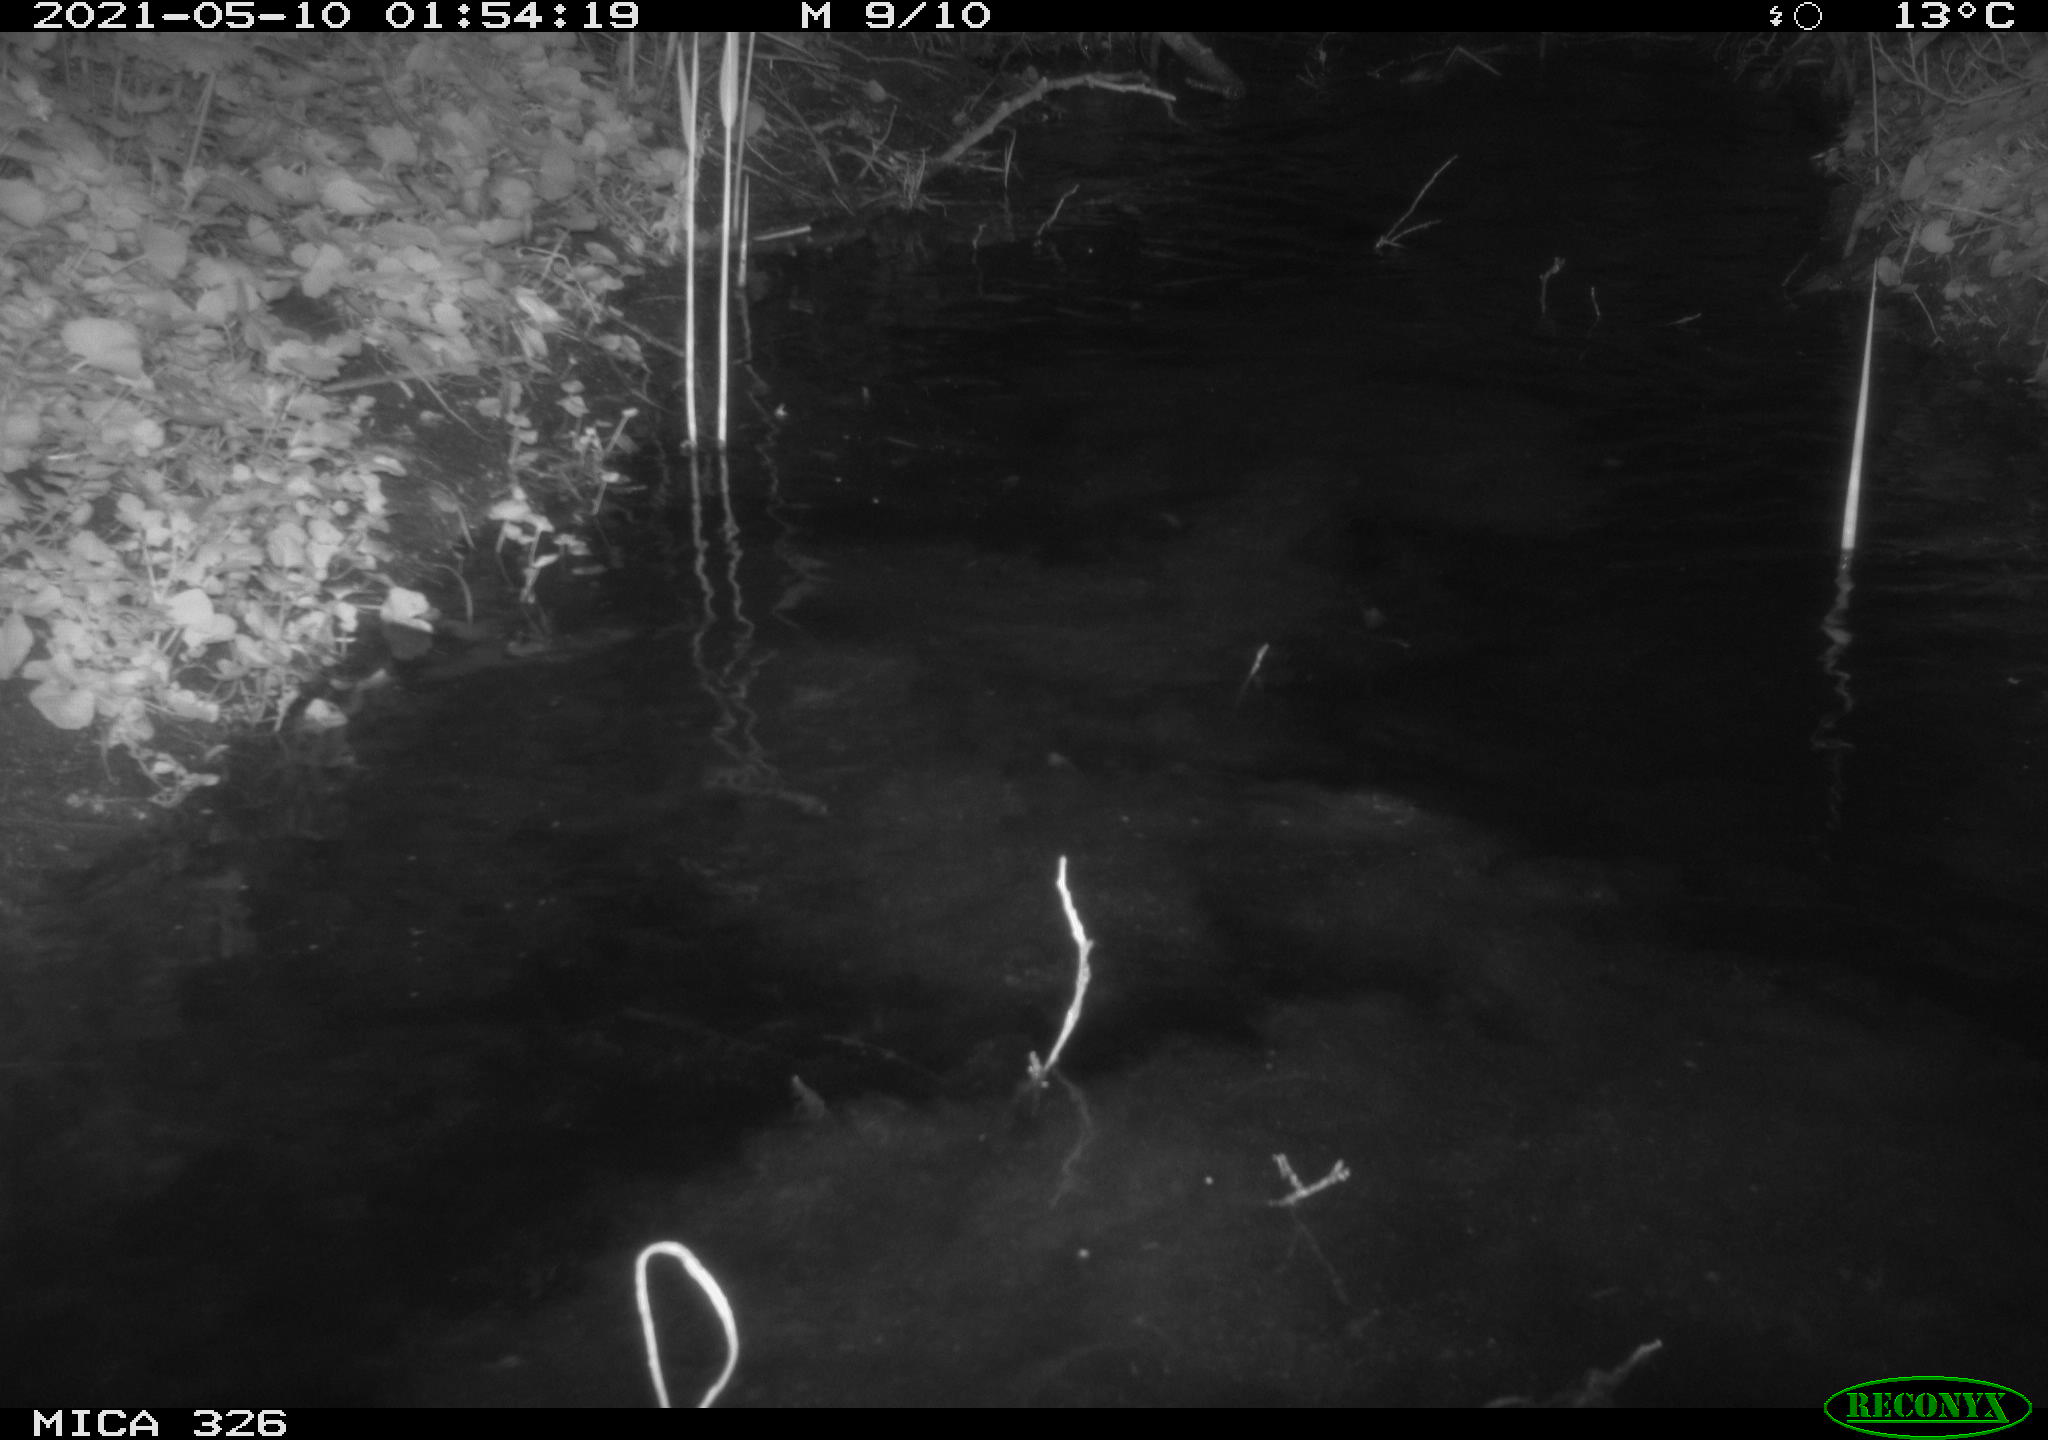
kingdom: Animalia
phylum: Chordata
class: Mammalia
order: Carnivora
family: Mustelidae
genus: Lutra
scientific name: Lutra lutra
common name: European otter
